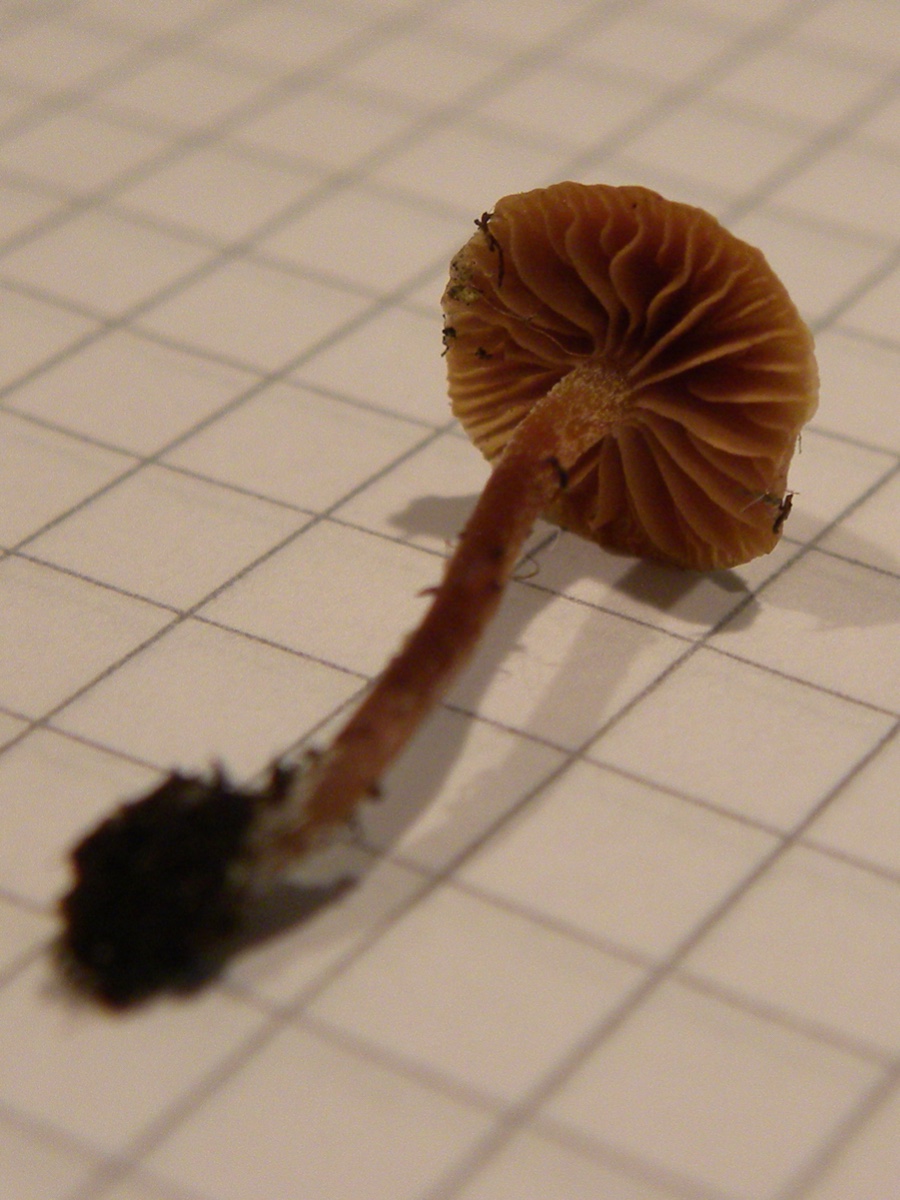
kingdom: Fungi
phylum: Basidiomycota
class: Agaricomycetes
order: Agaricales
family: Hymenogastraceae
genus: Galerina
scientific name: Galerina
